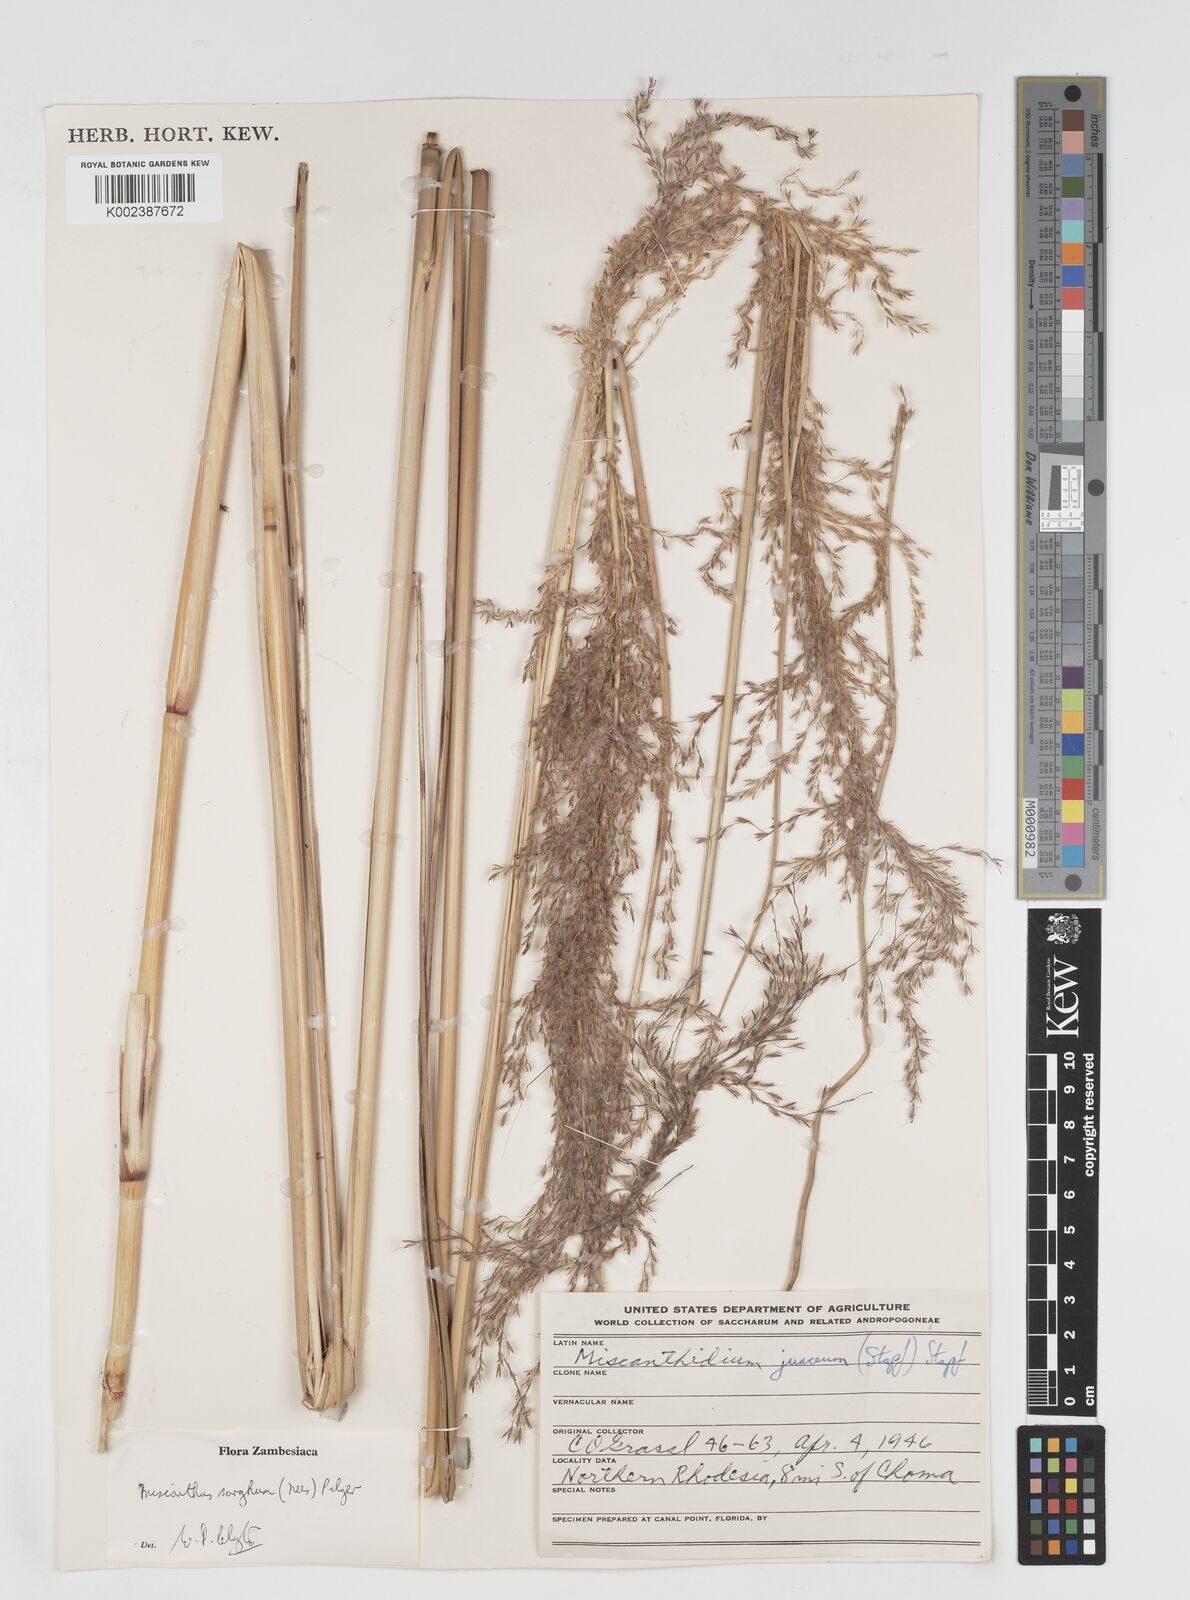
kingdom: Plantae
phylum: Tracheophyta
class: Liliopsida
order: Poales
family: Poaceae
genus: Miscanthus
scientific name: Miscanthus ecklonii
